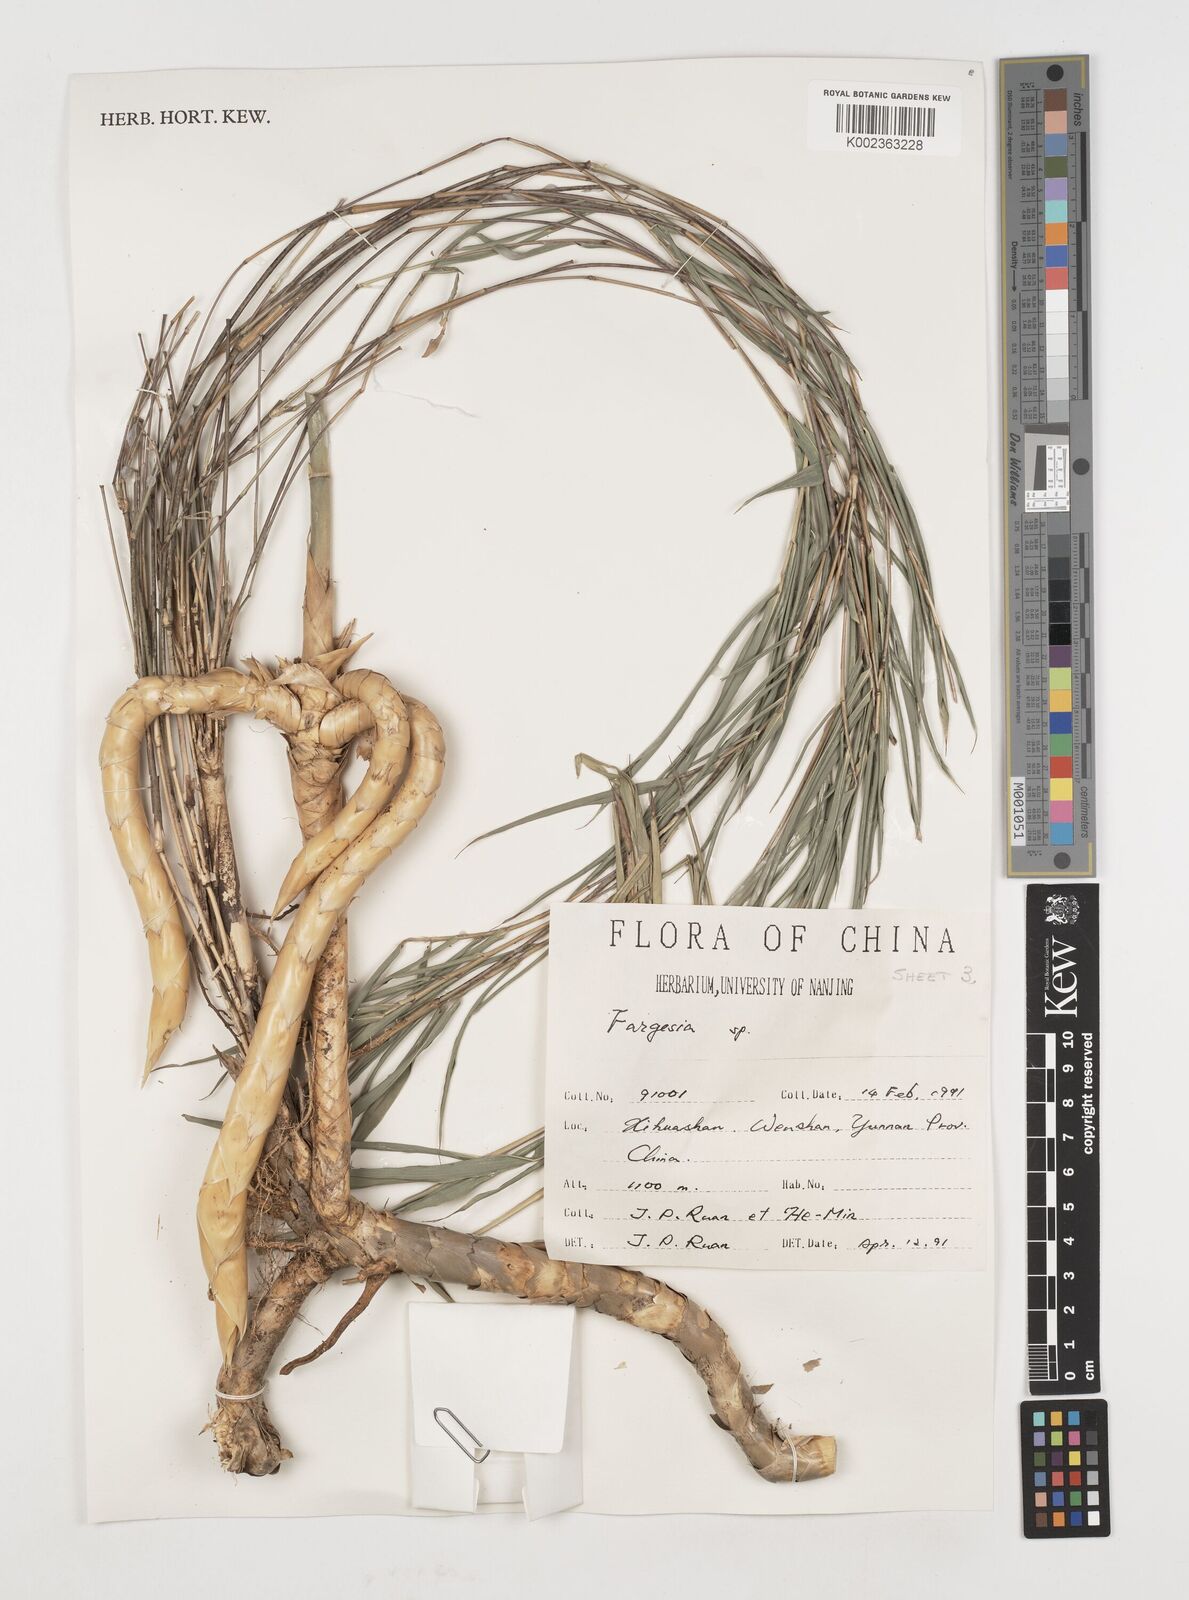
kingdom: Plantae
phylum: Tracheophyta
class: Liliopsida
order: Poales
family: Poaceae
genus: Fargesia
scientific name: Fargesia
